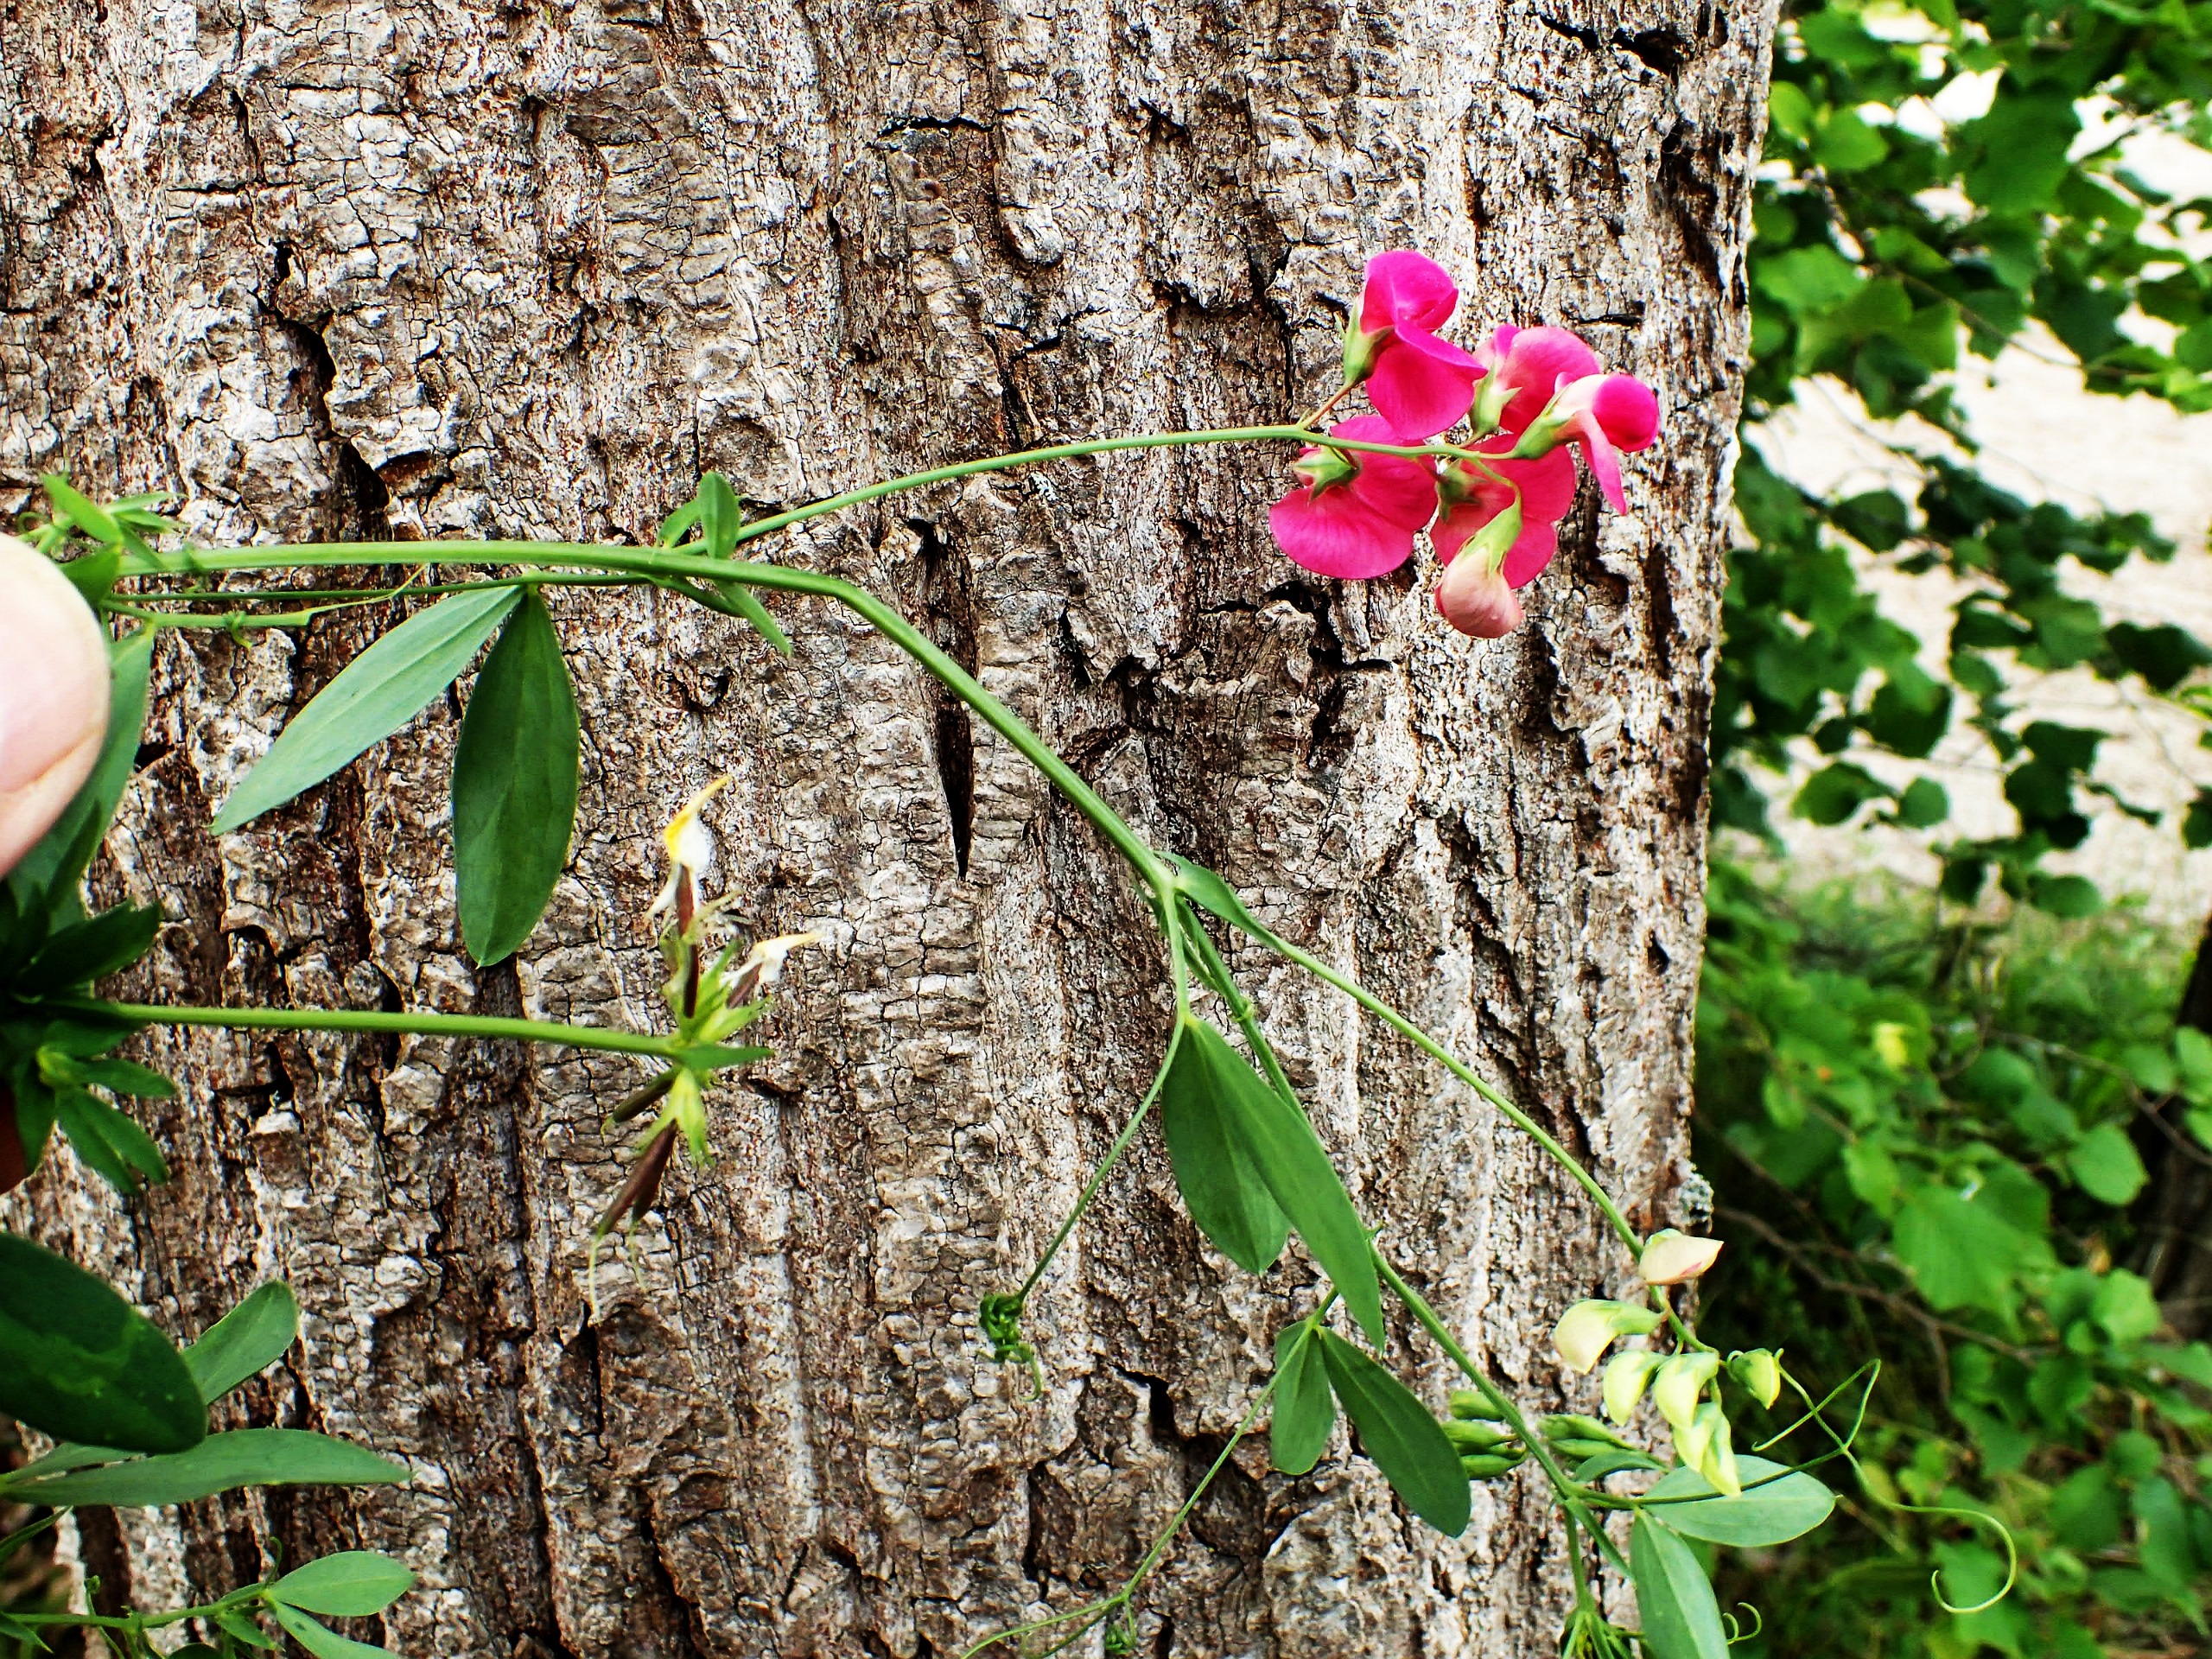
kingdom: Plantae
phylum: Tracheophyta
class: Magnoliopsida
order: Fabales
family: Fabaceae
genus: Lathyrus
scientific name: Lathyrus tuberosus
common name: Knold-fladbælg
